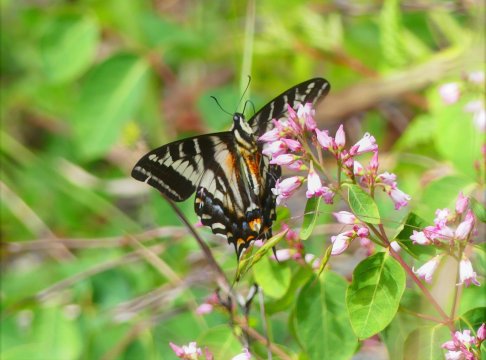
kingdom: Animalia
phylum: Arthropoda
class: Insecta
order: Lepidoptera
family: Papilionidae
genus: Pterourus
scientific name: Pterourus eurymedon
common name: Pale Swallowtail
